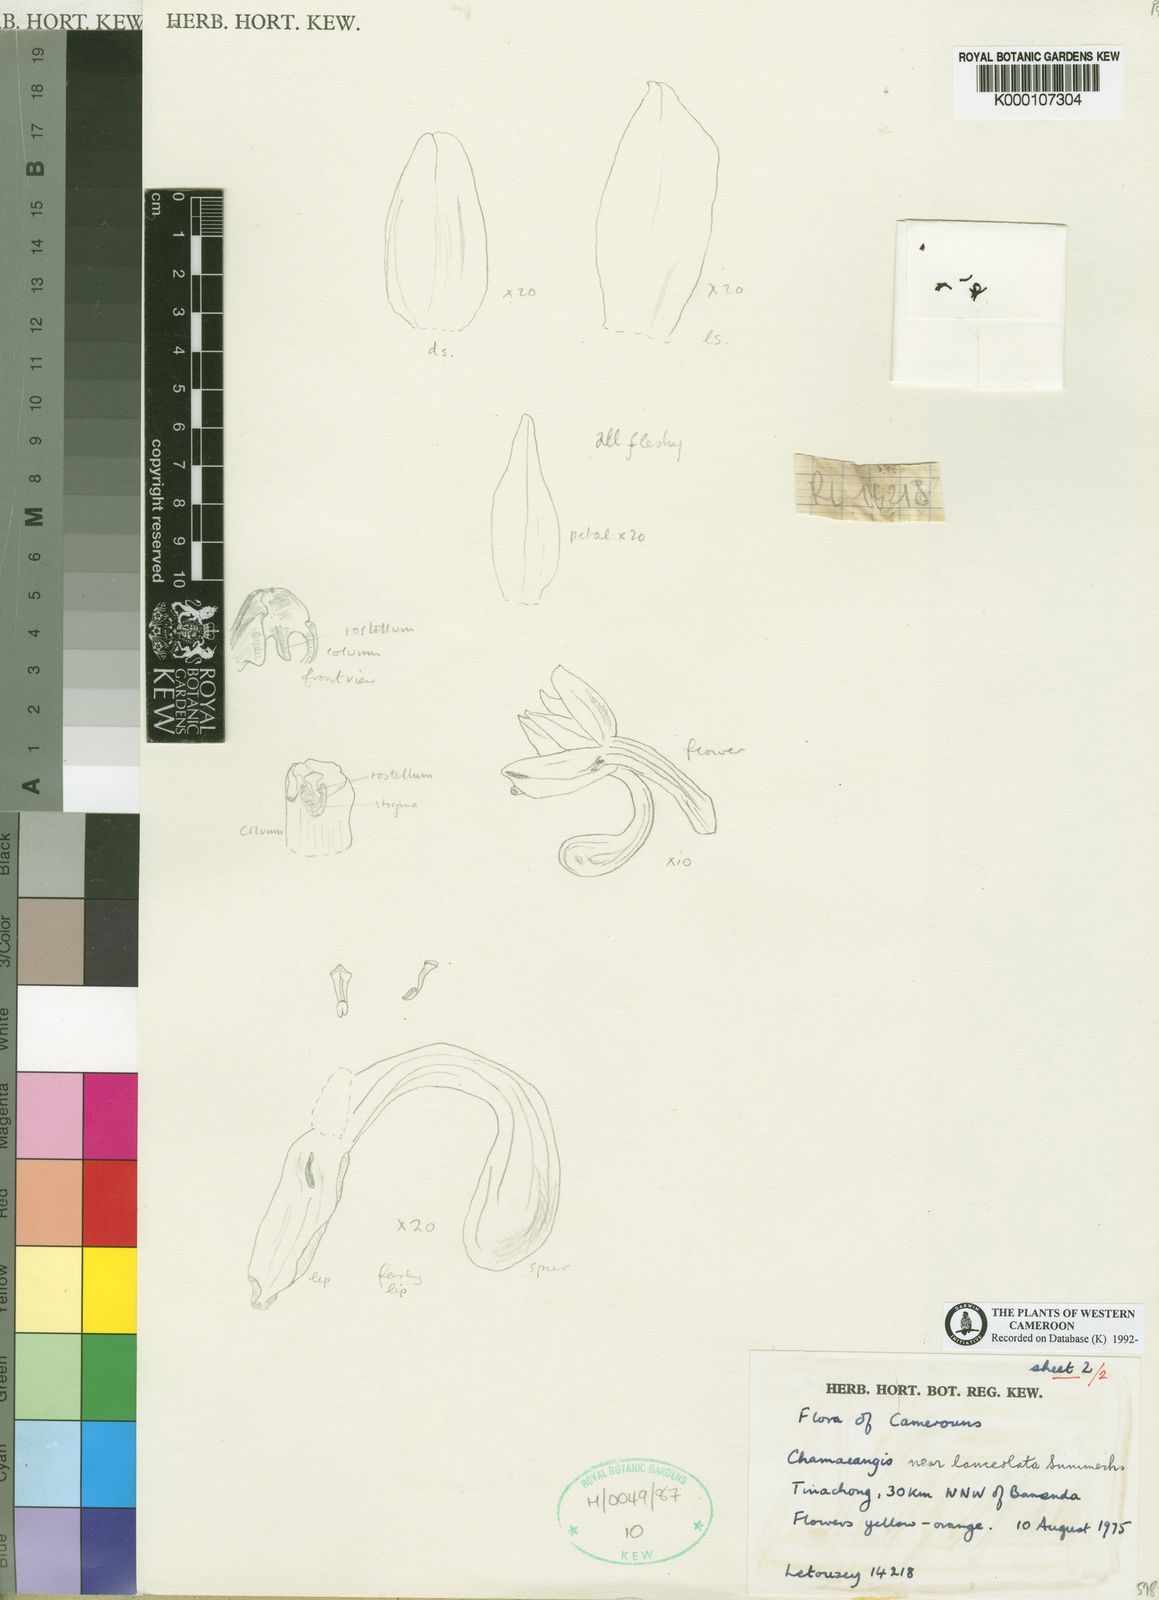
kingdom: Plantae
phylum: Tracheophyta
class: Liliopsida
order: Asparagales
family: Orchidaceae
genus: Diaphananthe
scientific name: Diaphananthe letouzeyi
